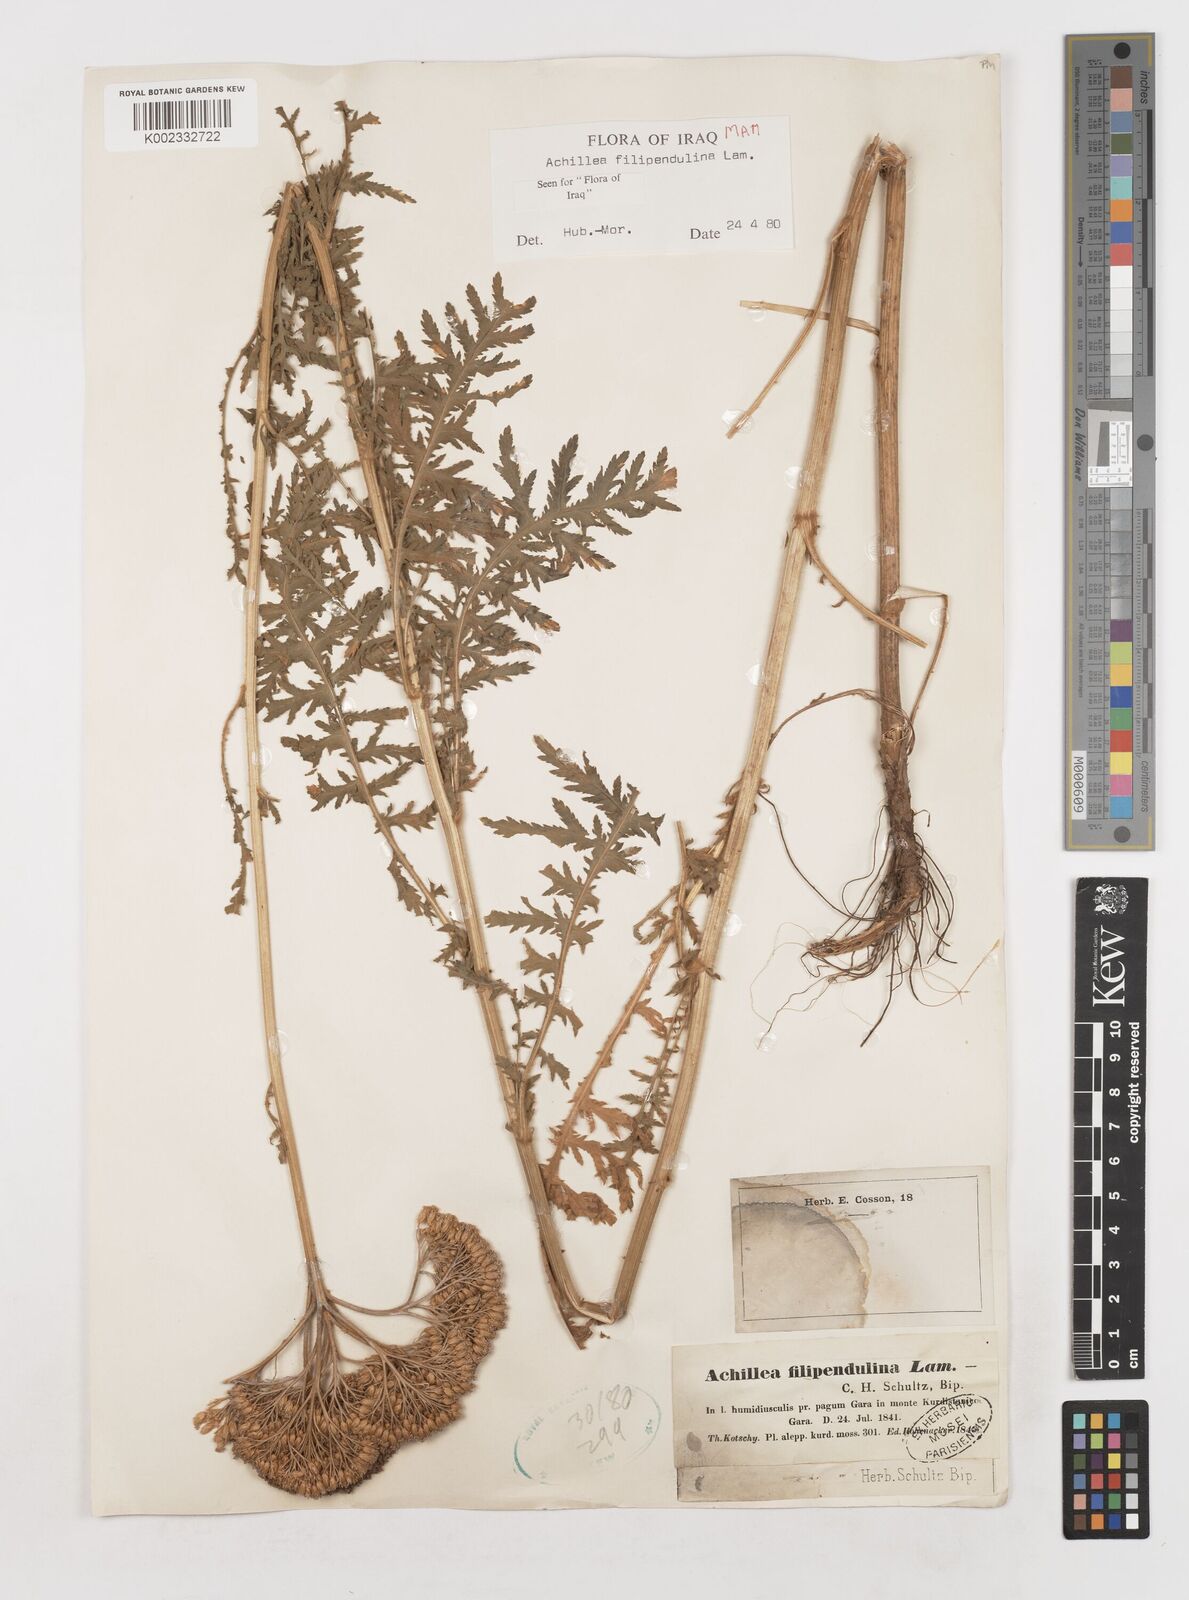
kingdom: Plantae
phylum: Tracheophyta
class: Magnoliopsida
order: Asterales
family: Asteraceae
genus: Achillea
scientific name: Achillea filipendulina
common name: Fernleaf yarrow
